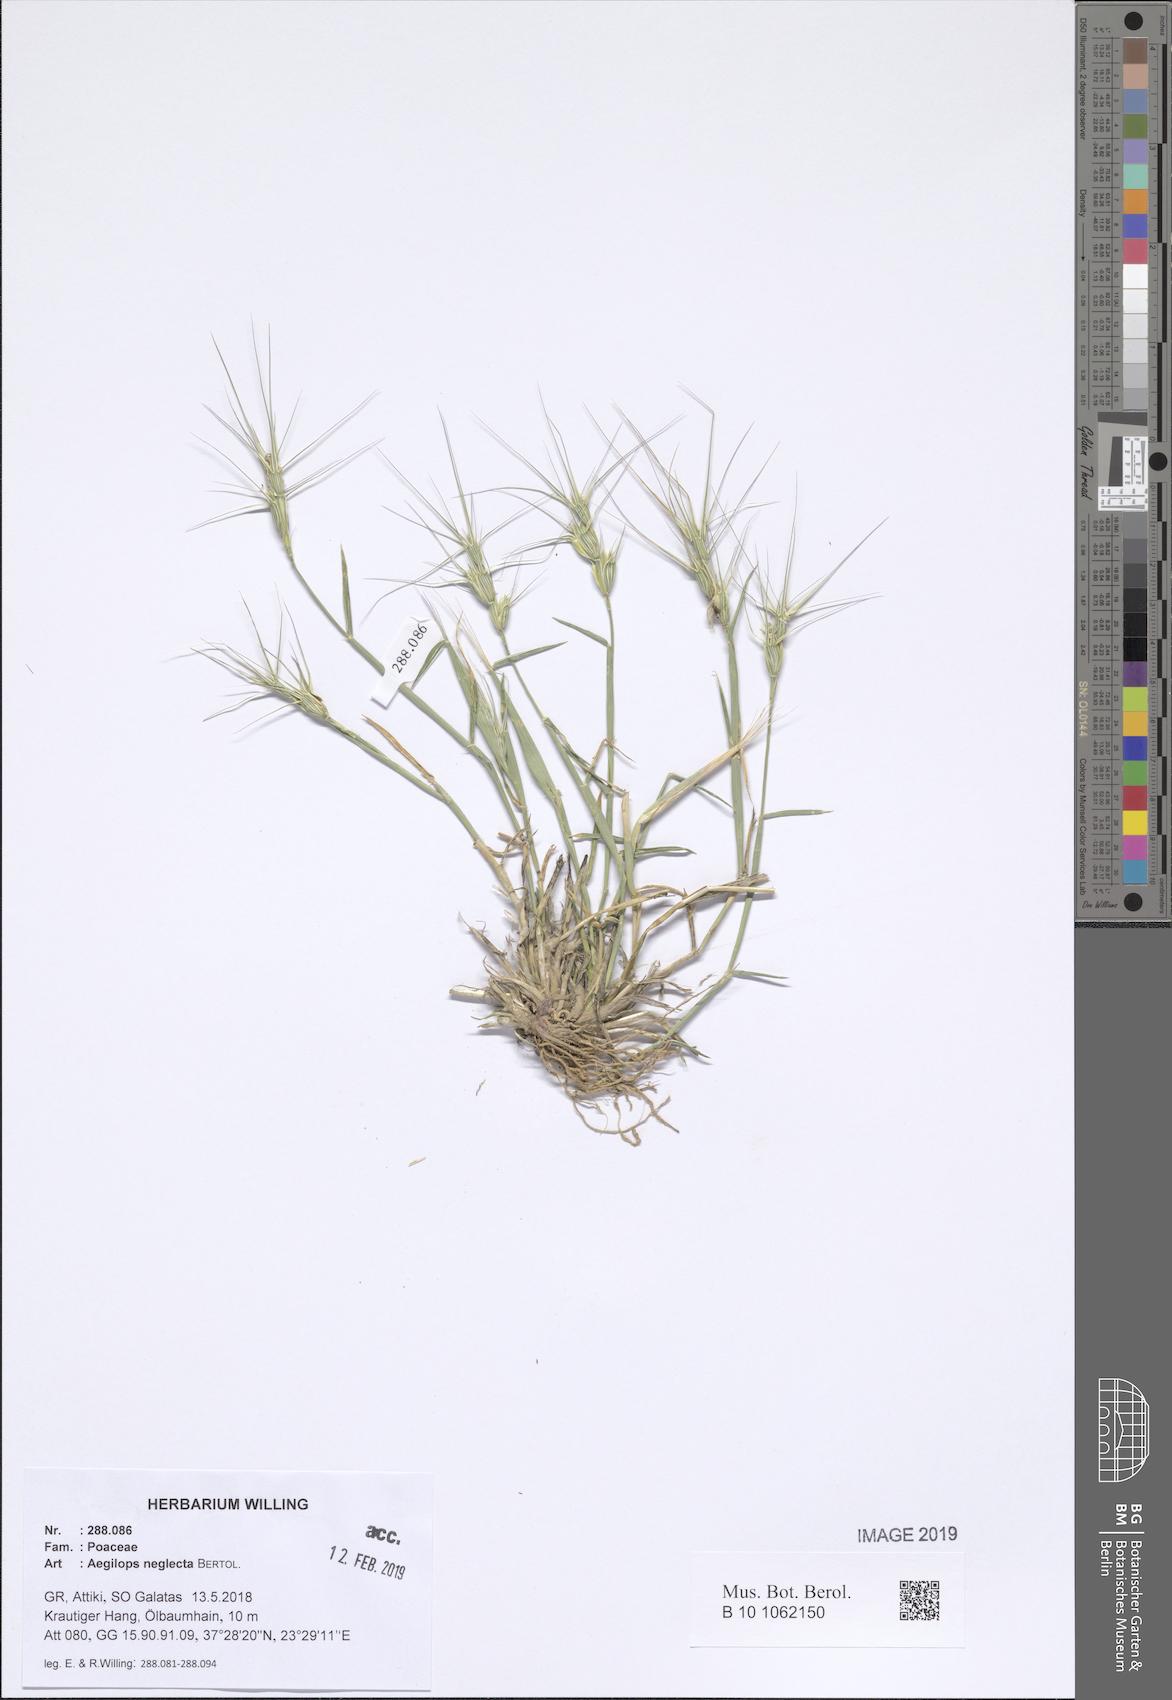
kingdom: Plantae
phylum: Tracheophyta
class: Liliopsida
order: Poales
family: Poaceae
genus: Aegilops
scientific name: Aegilops neglecta
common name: Three-awn goat grass
